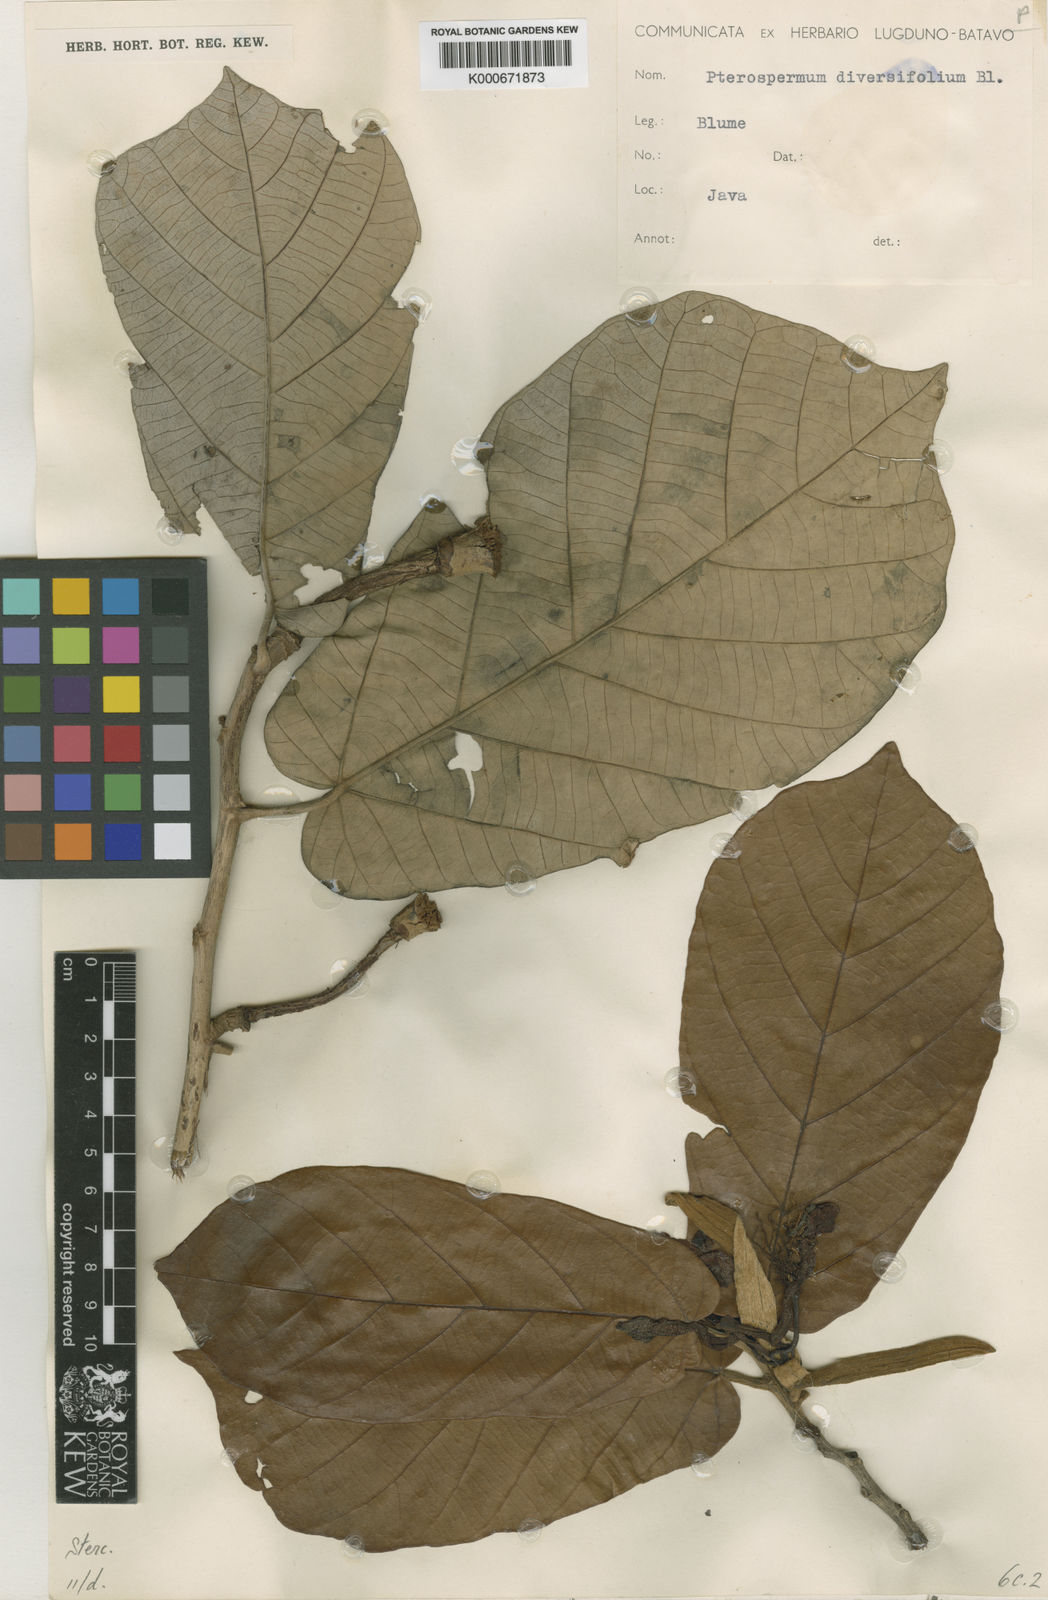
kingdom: Plantae
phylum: Tracheophyta
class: Magnoliopsida
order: Malvales
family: Malvaceae
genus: Pterospermum
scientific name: Pterospermum diversifolium
